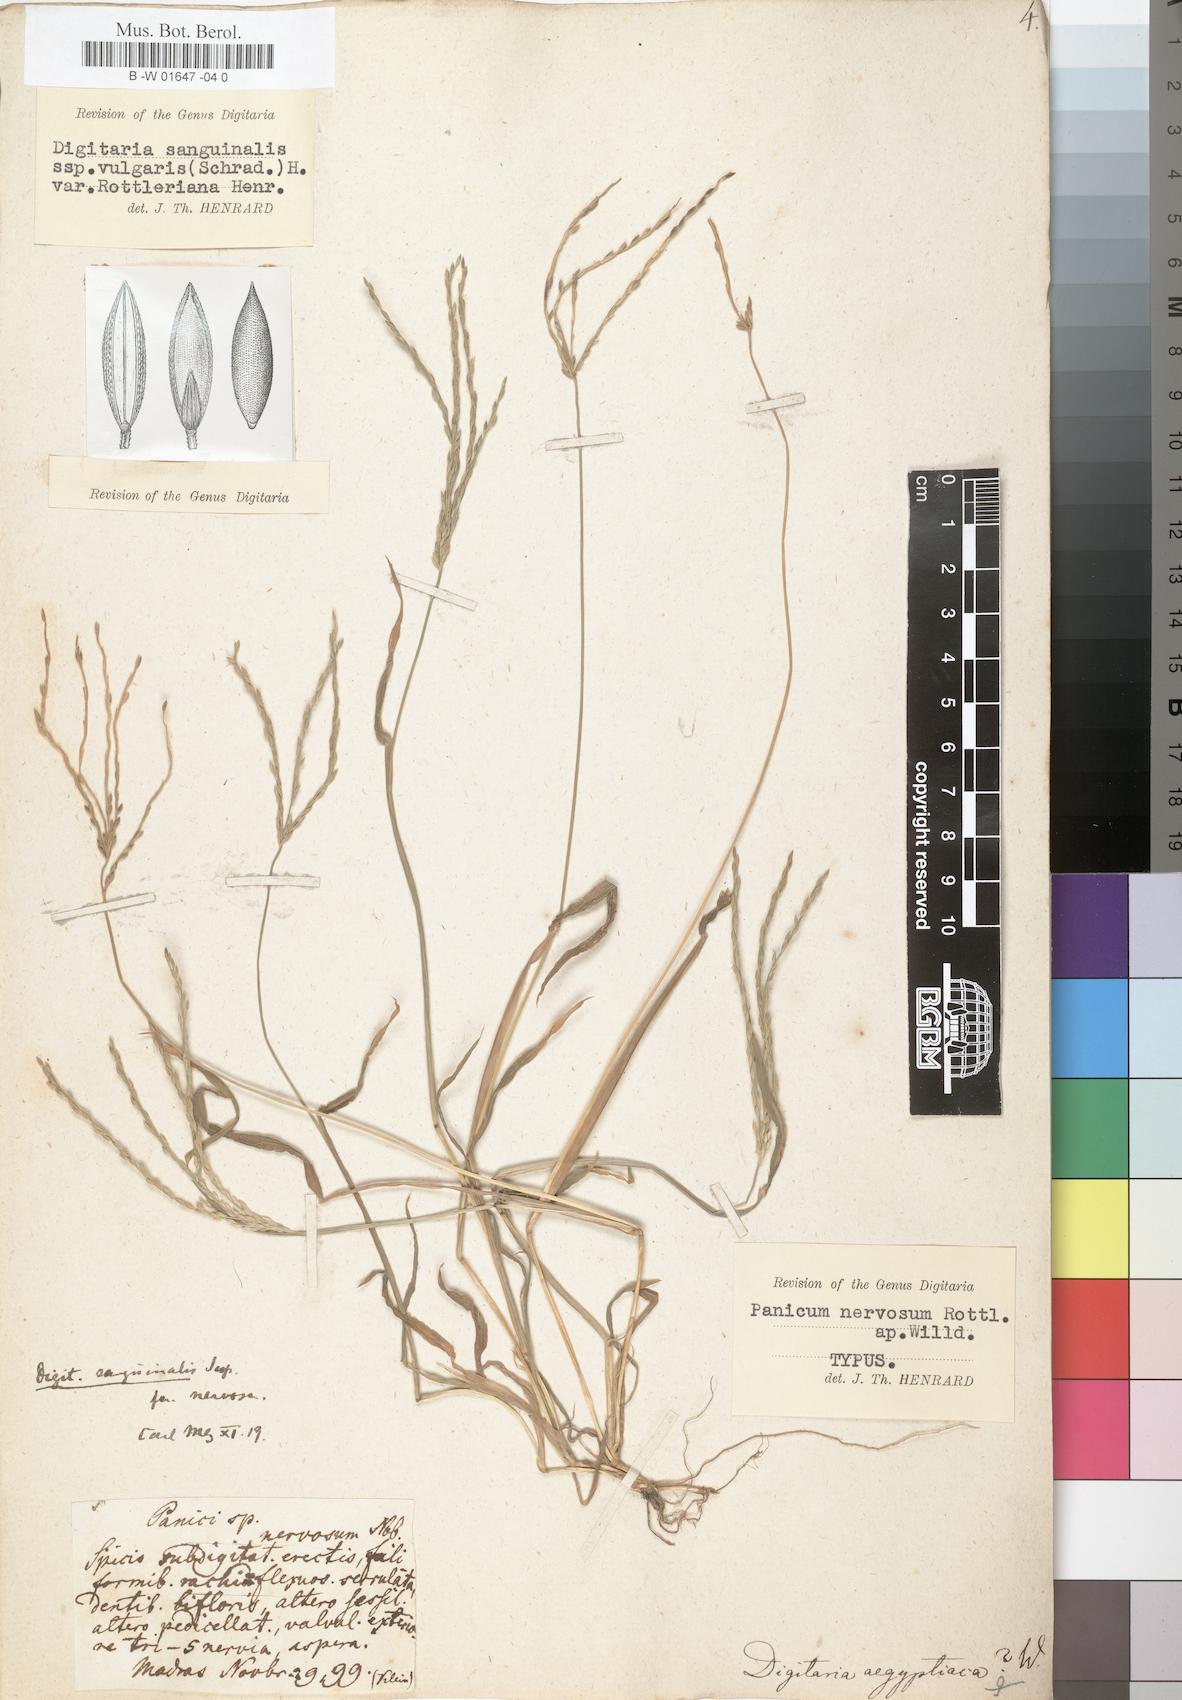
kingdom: Plantae
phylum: Tracheophyta
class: Liliopsida
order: Poales
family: Poaceae
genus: Digitaria
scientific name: Digitaria sanguinalis
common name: Hairy crabgrass
